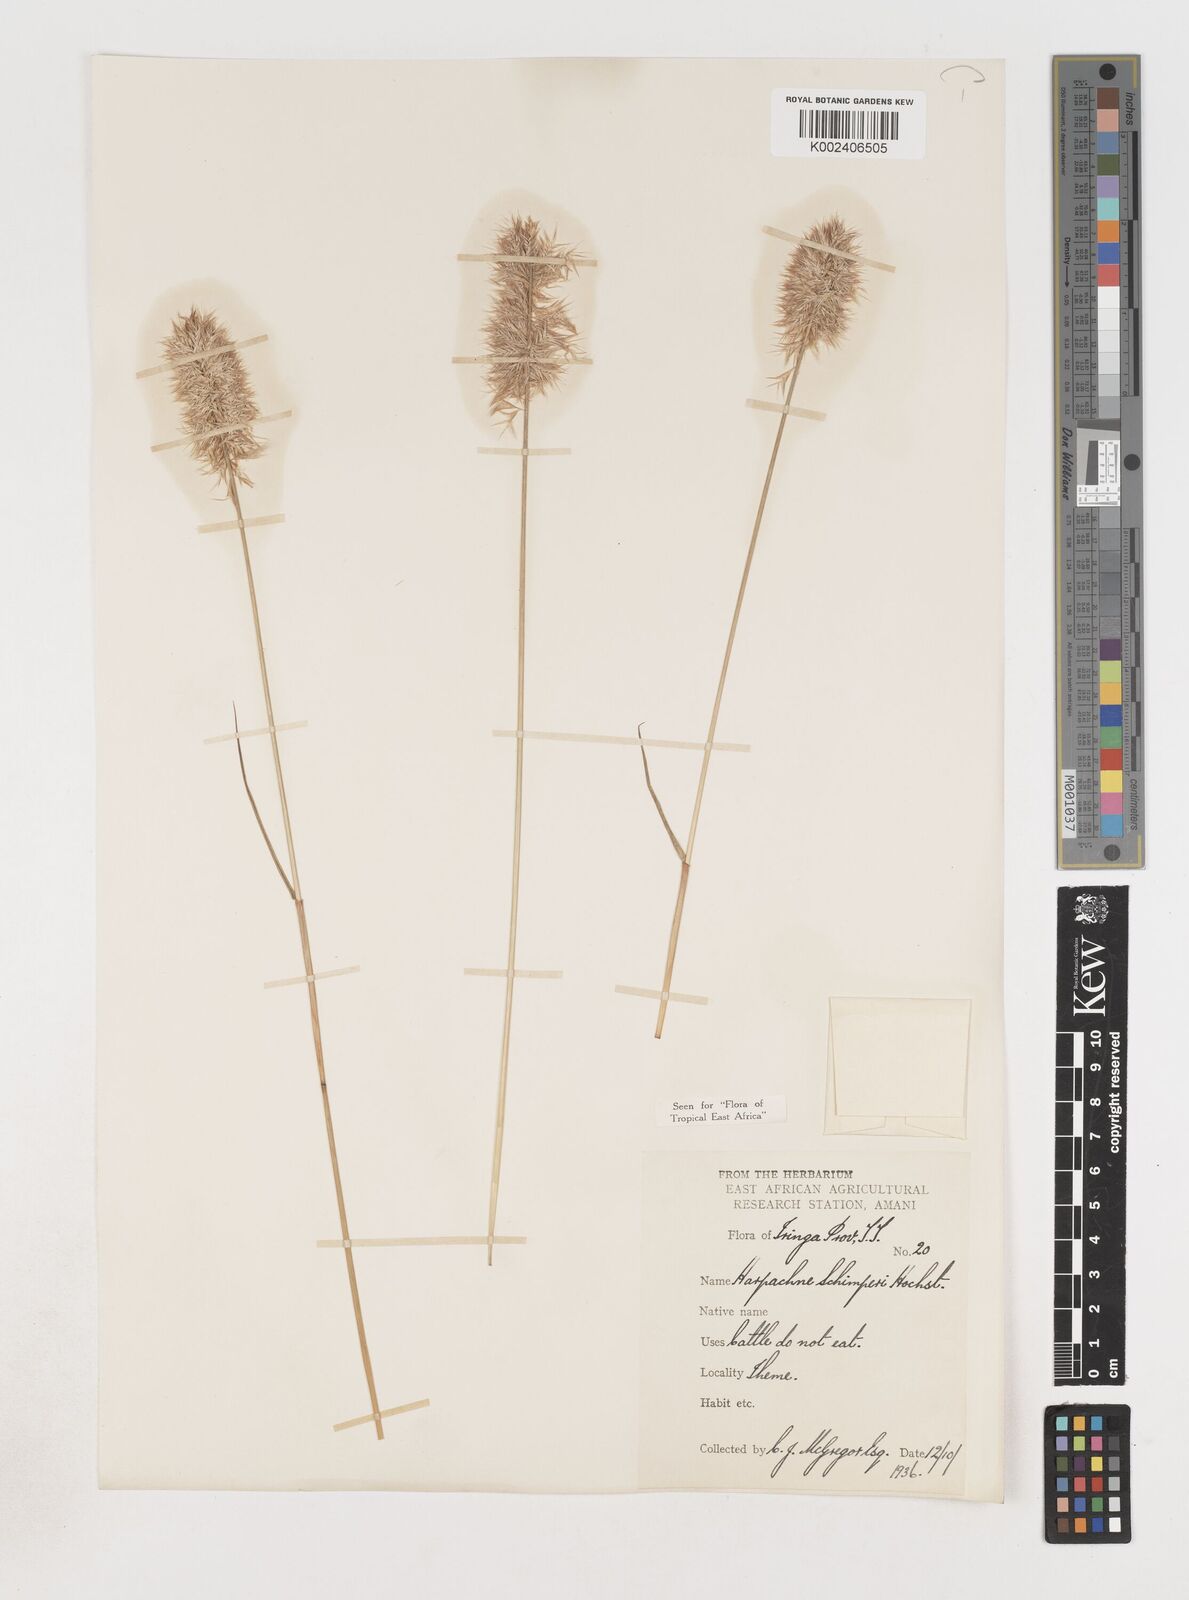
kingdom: Plantae
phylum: Tracheophyta
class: Liliopsida
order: Poales
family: Poaceae
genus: Harpachne
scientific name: Harpachne schimperi
